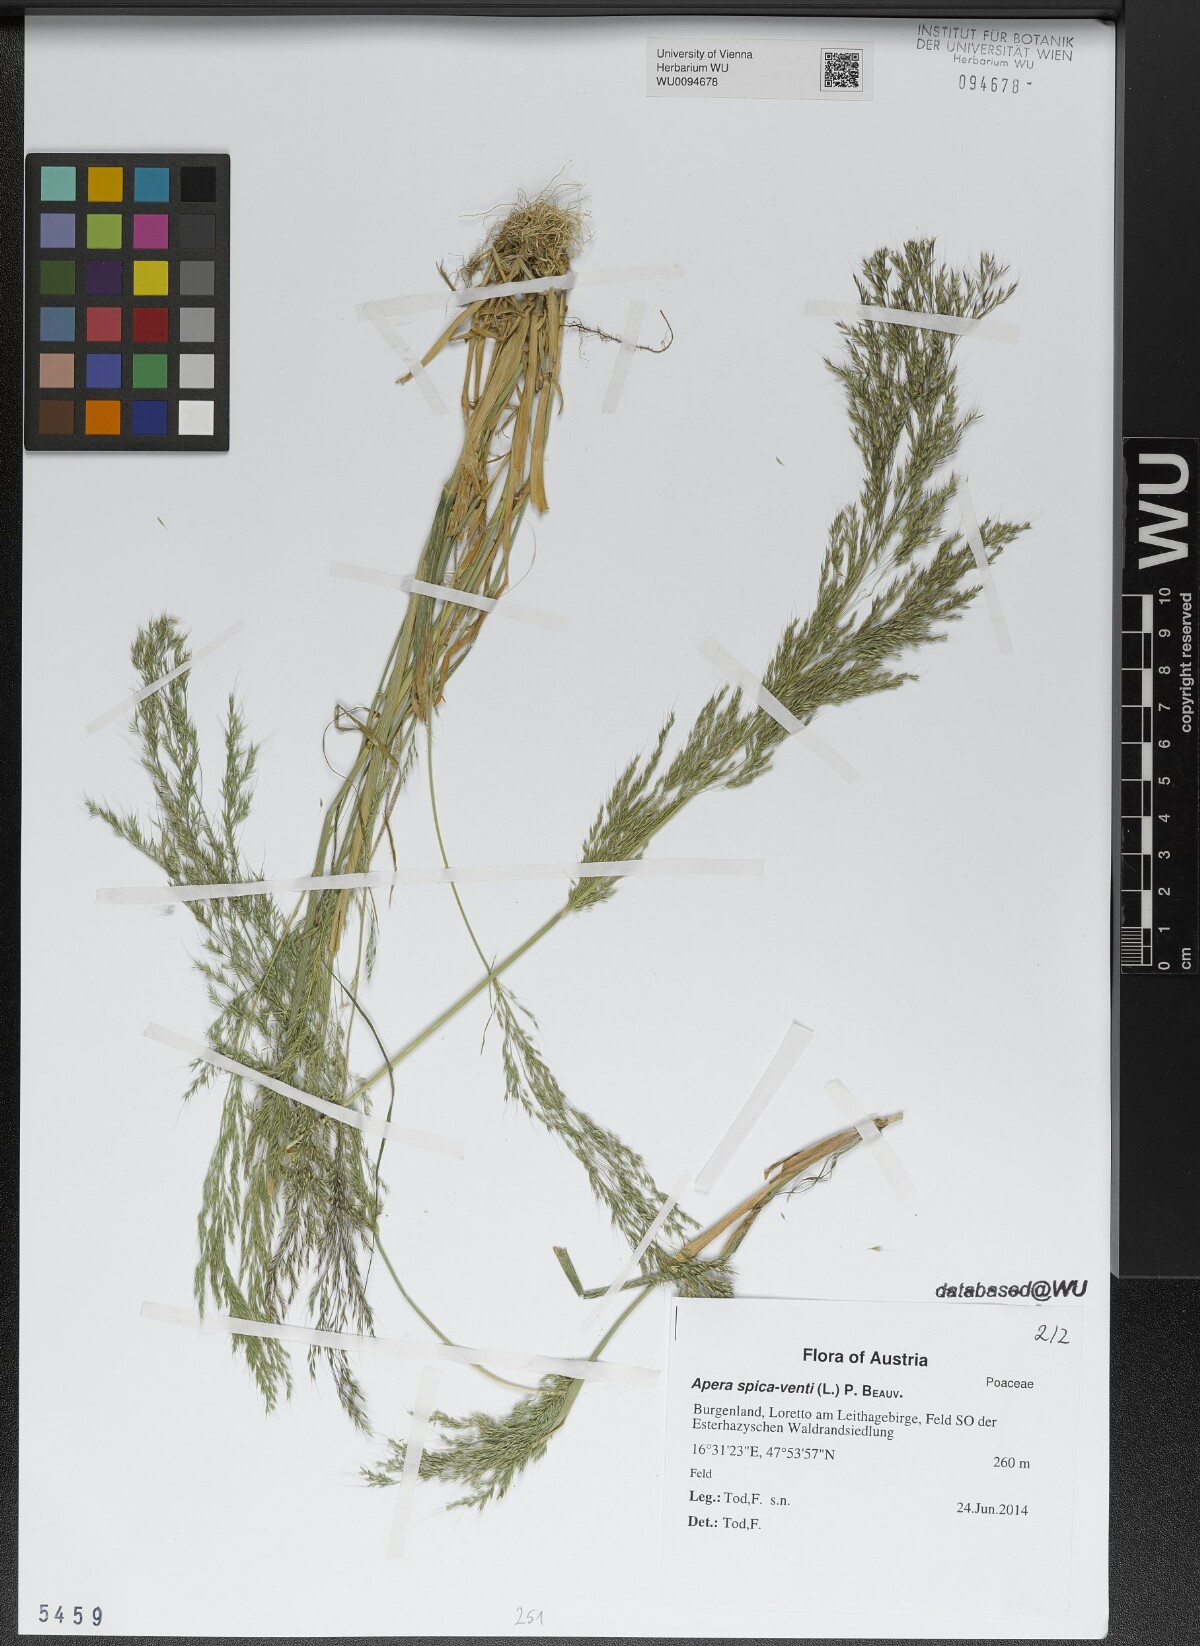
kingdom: Plantae
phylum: Tracheophyta
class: Liliopsida
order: Poales
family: Poaceae
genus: Apera
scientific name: Apera spica-venti
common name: Loose silky-bent
